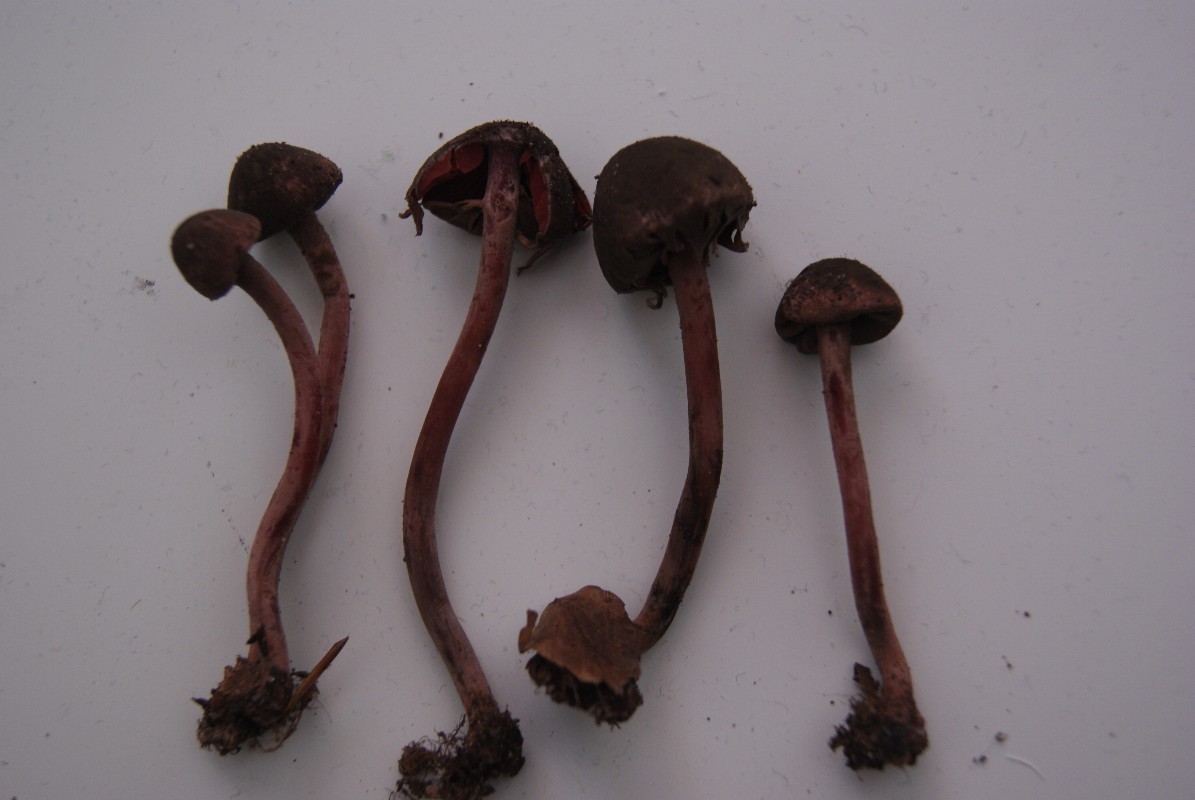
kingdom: Fungi
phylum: Basidiomycota
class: Agaricomycetes
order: Agaricales
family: Agaricaceae
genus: Melanophyllum
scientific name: Melanophyllum haematospermum
